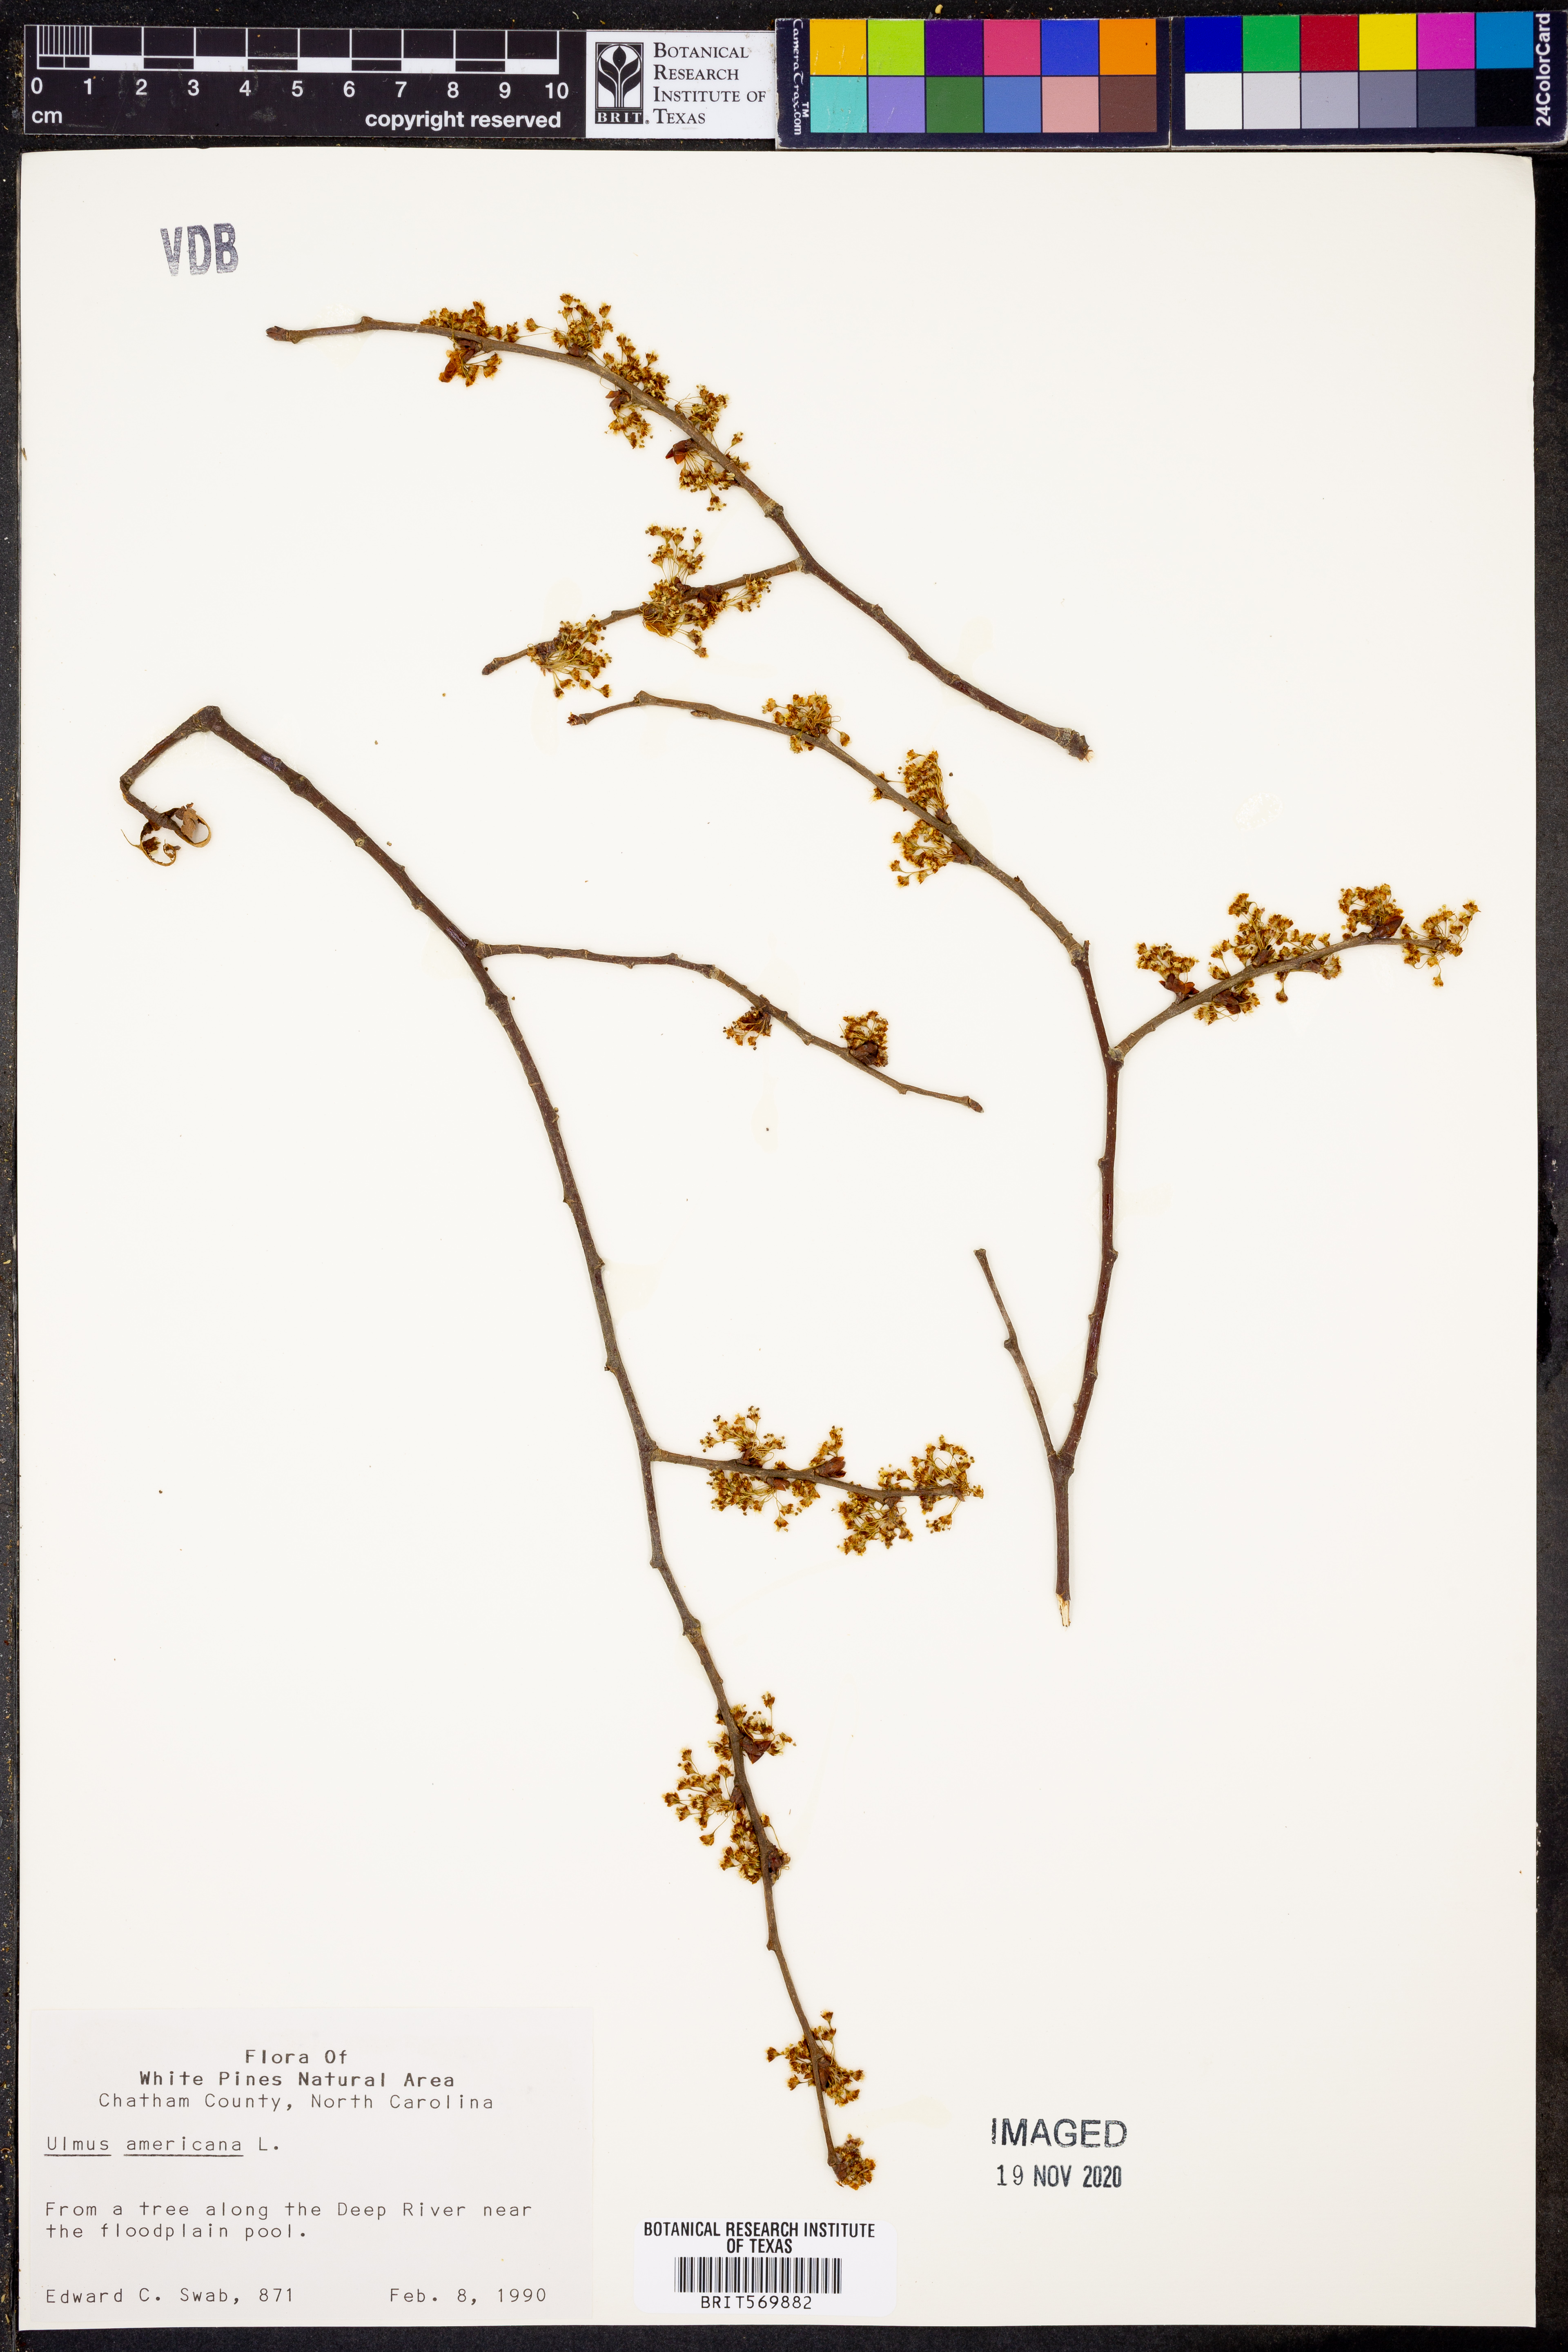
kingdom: Plantae
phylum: Tracheophyta
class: Magnoliopsida
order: Rosales
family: Ulmaceae
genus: Ulmus
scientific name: Ulmus americana
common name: American elm
